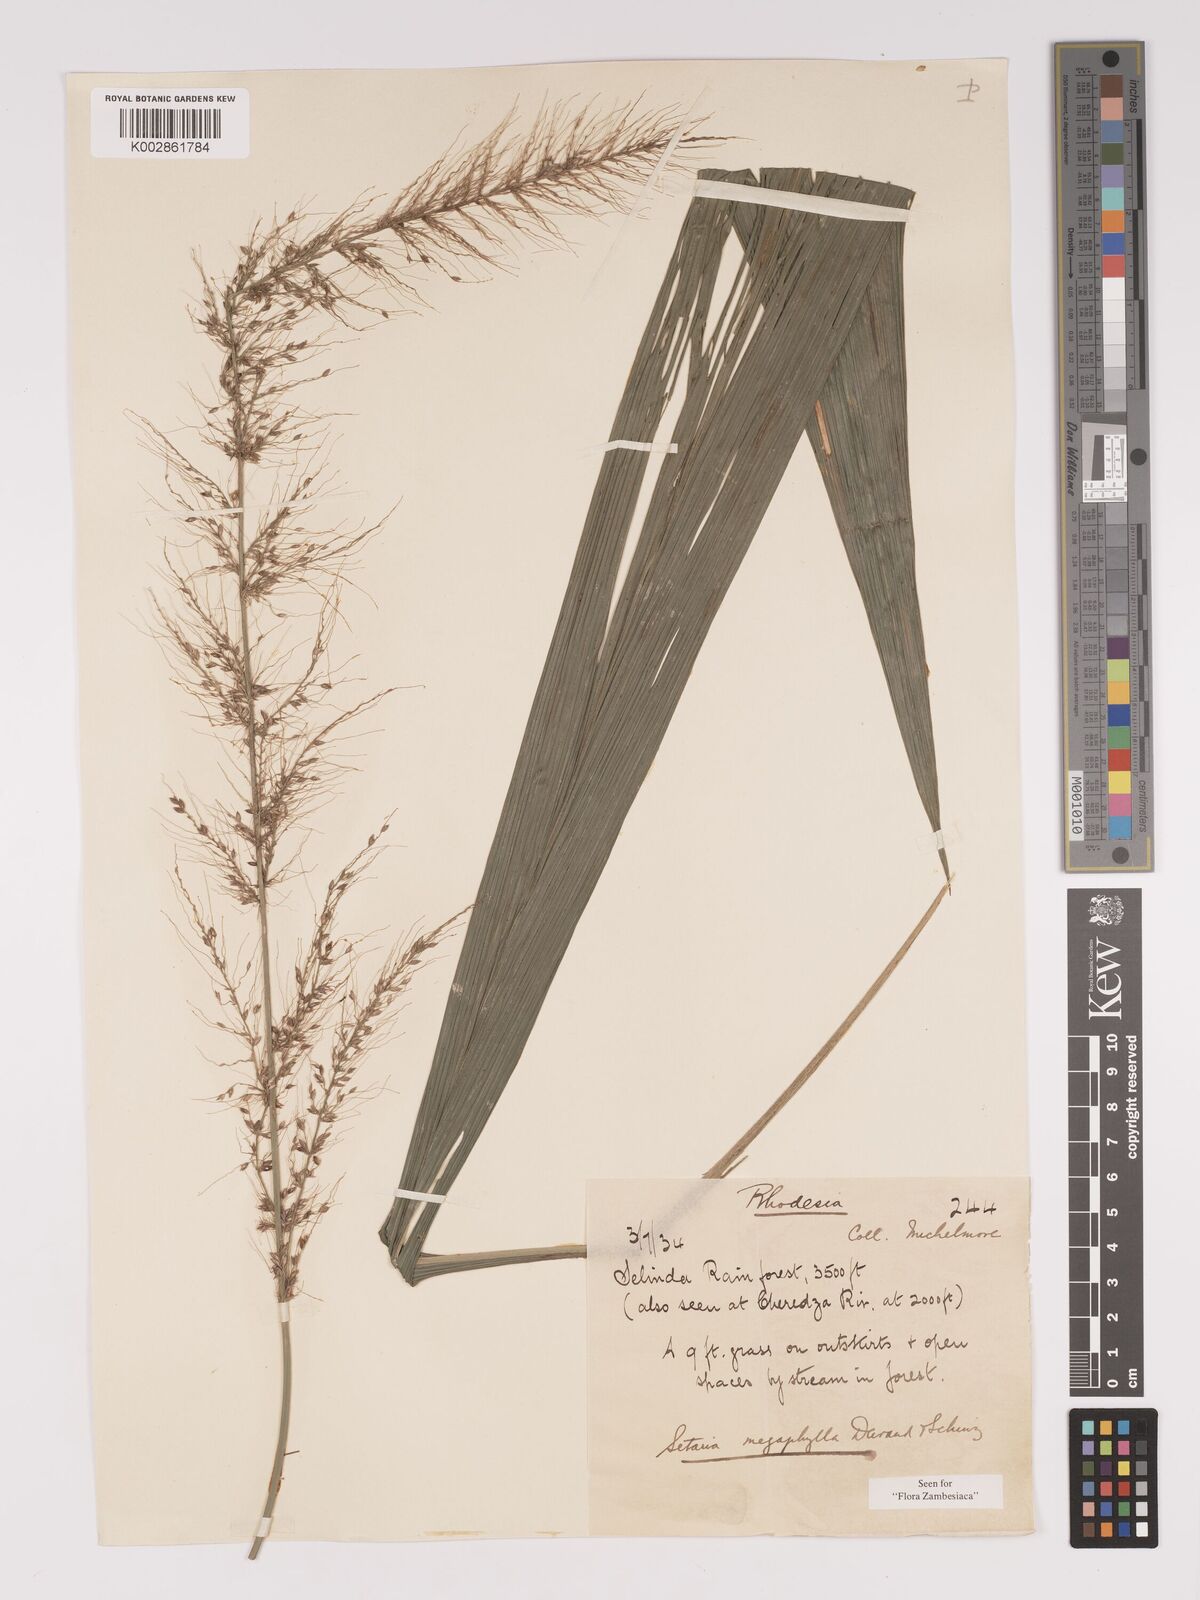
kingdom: Plantae
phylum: Tracheophyta
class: Liliopsida
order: Poales
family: Poaceae
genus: Setaria
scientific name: Setaria megaphylla
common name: Bigleaf bristlegrass
